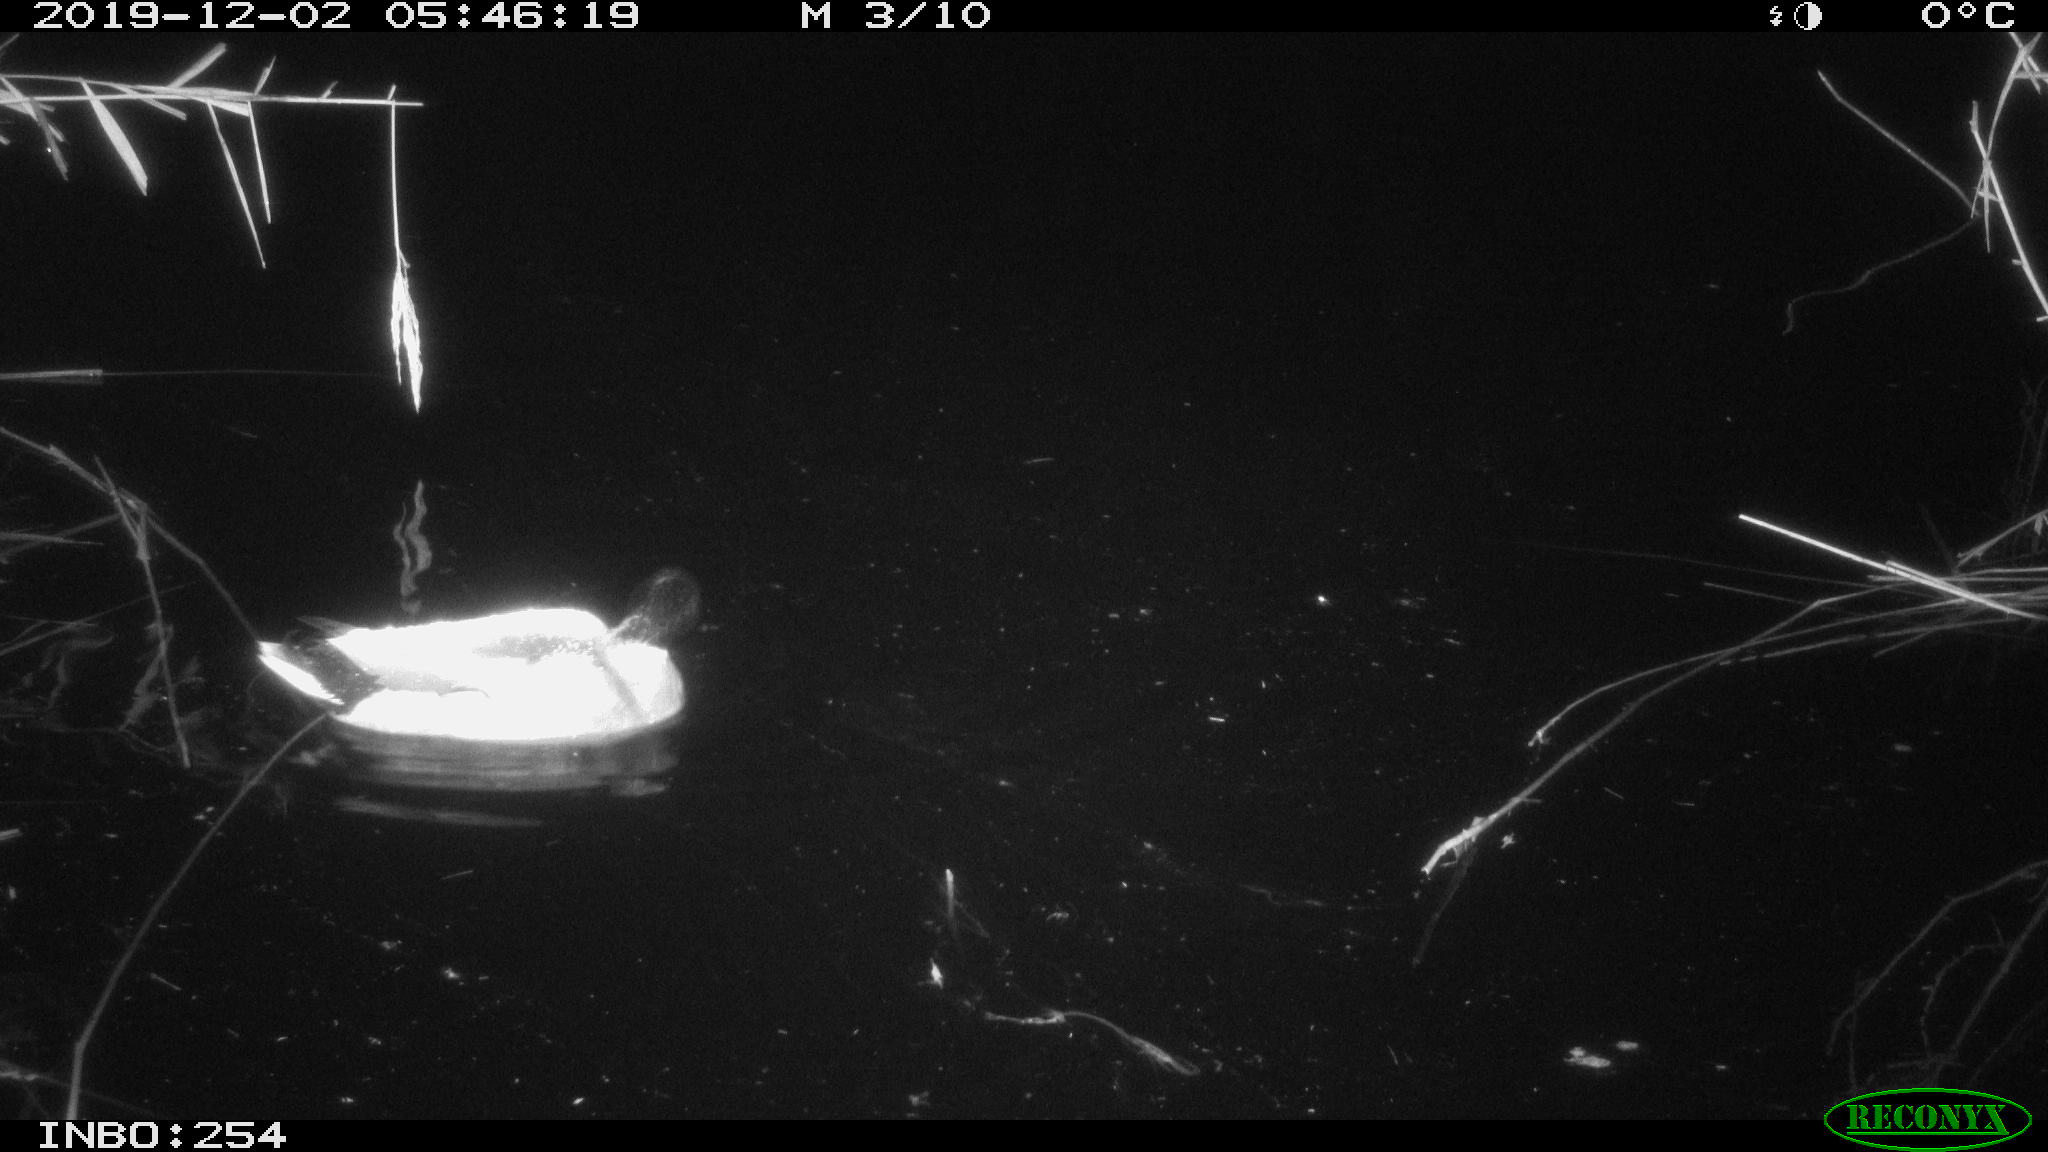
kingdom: Animalia
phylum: Chordata
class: Aves
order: Anseriformes
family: Anatidae
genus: Anas
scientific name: Anas platyrhynchos
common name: Mallard
